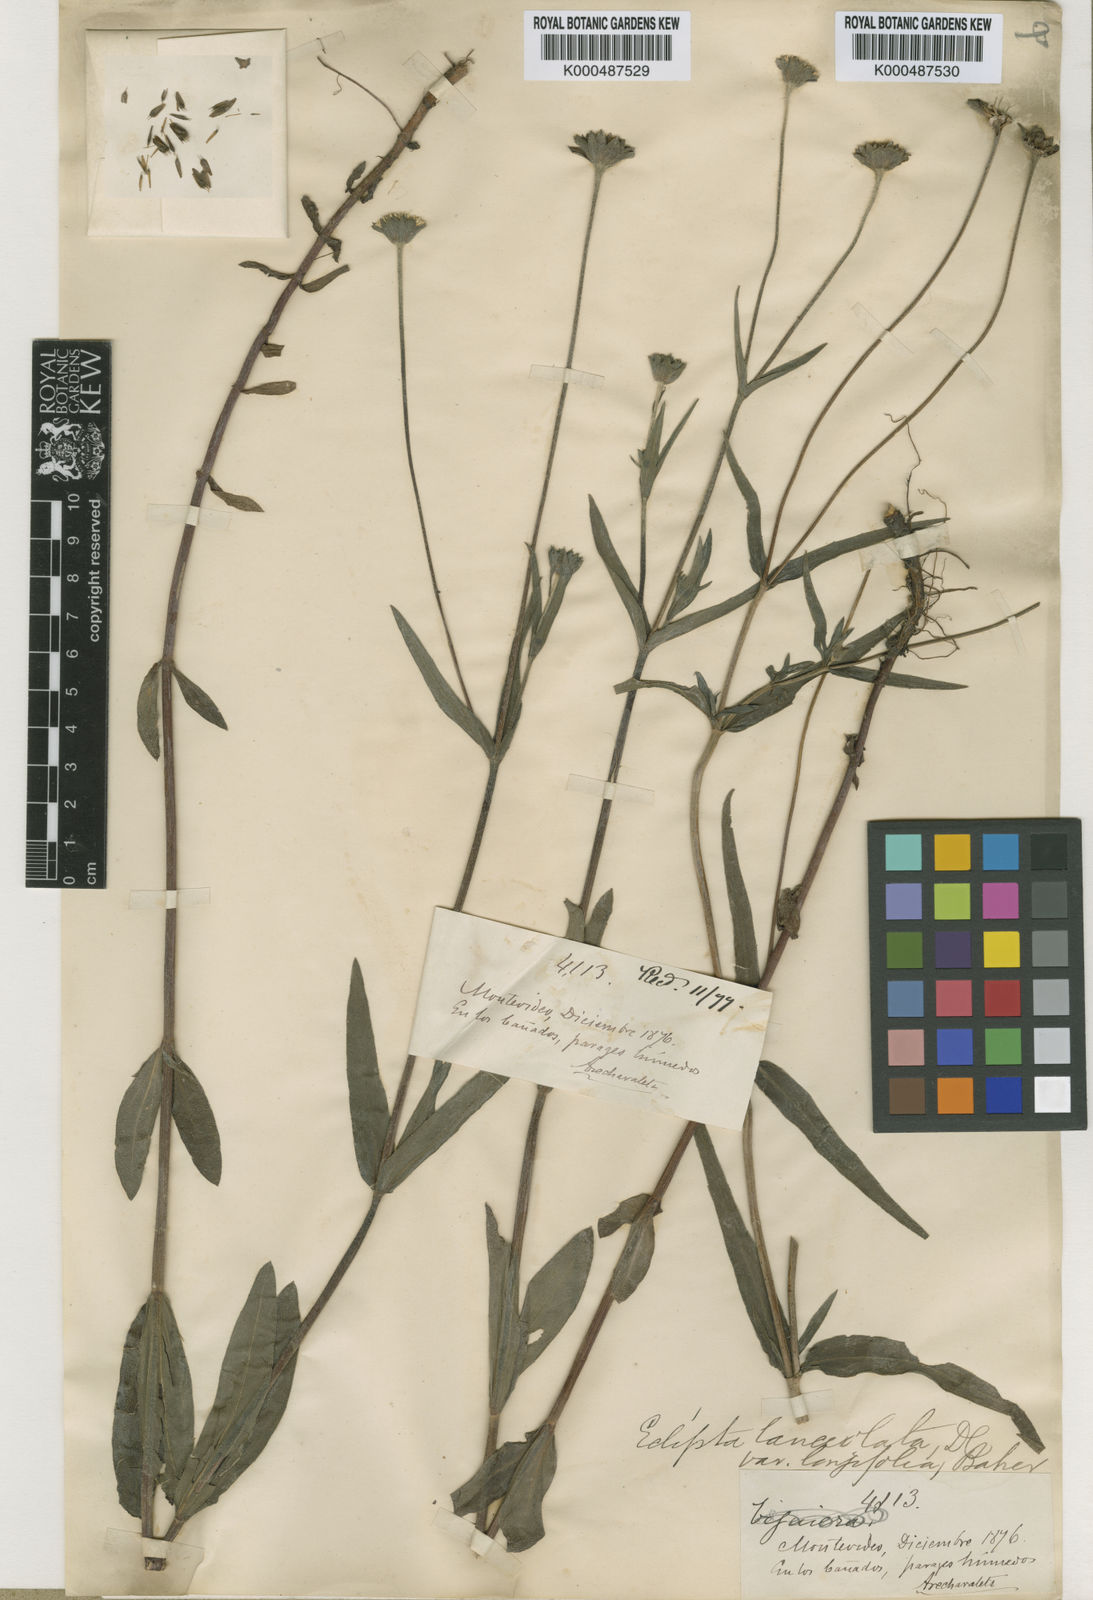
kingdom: Plantae
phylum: Tracheophyta
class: Magnoliopsida
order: Asterales
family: Asteraceae
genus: Eclipta
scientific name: Eclipta elliptica
